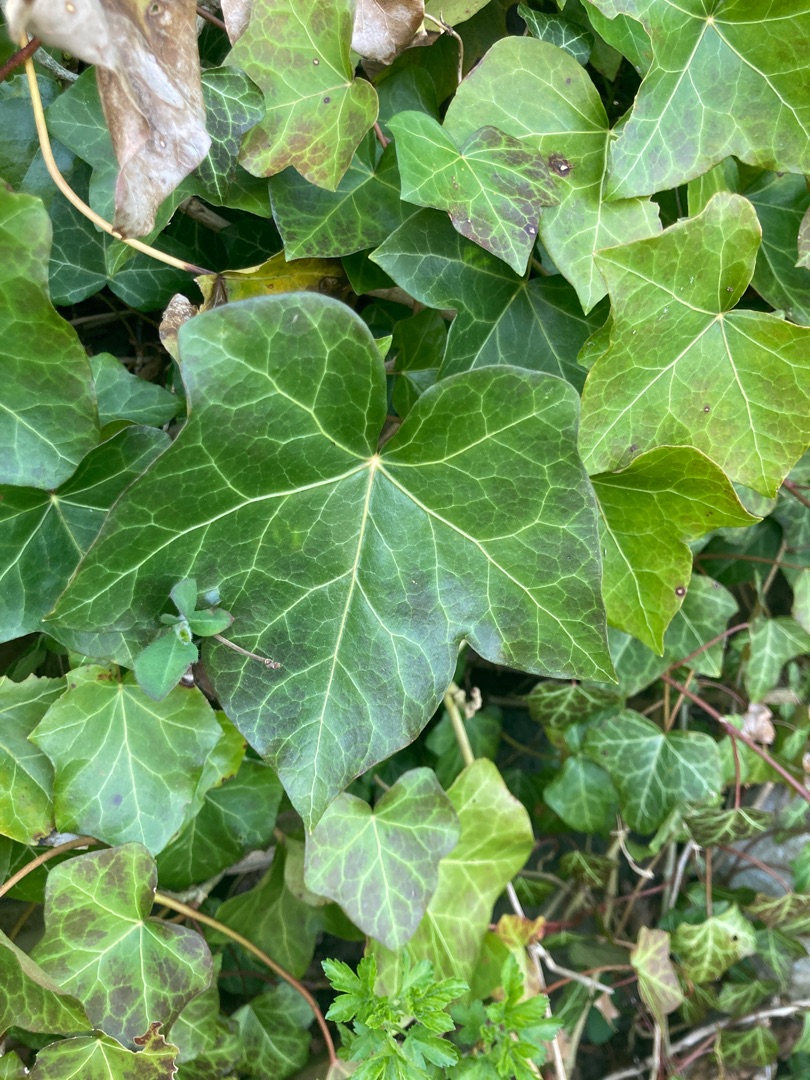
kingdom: Plantae
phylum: Tracheophyta
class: Magnoliopsida
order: Apiales
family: Araliaceae
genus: Hedera
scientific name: Hedera helix
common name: Vedbend
